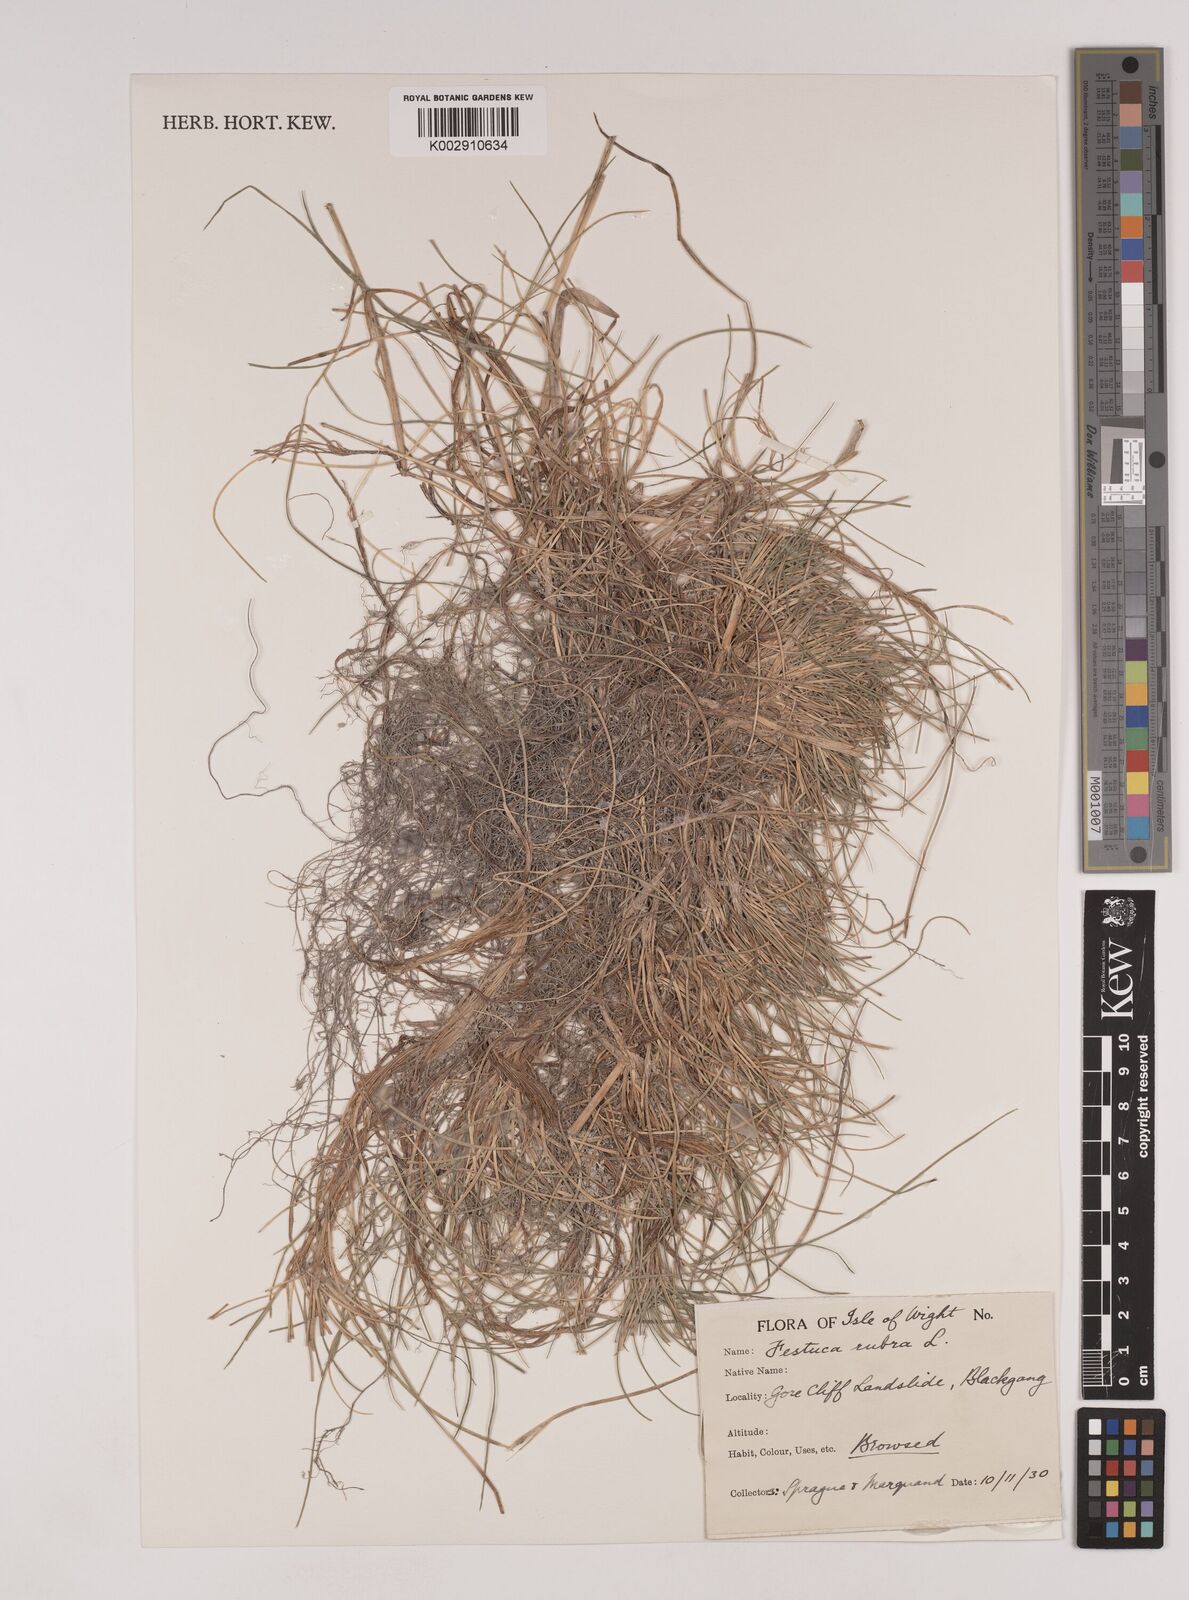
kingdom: Plantae
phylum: Tracheophyta
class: Liliopsida
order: Poales
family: Poaceae
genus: Festuca
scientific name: Festuca rubra
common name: Red fescue
